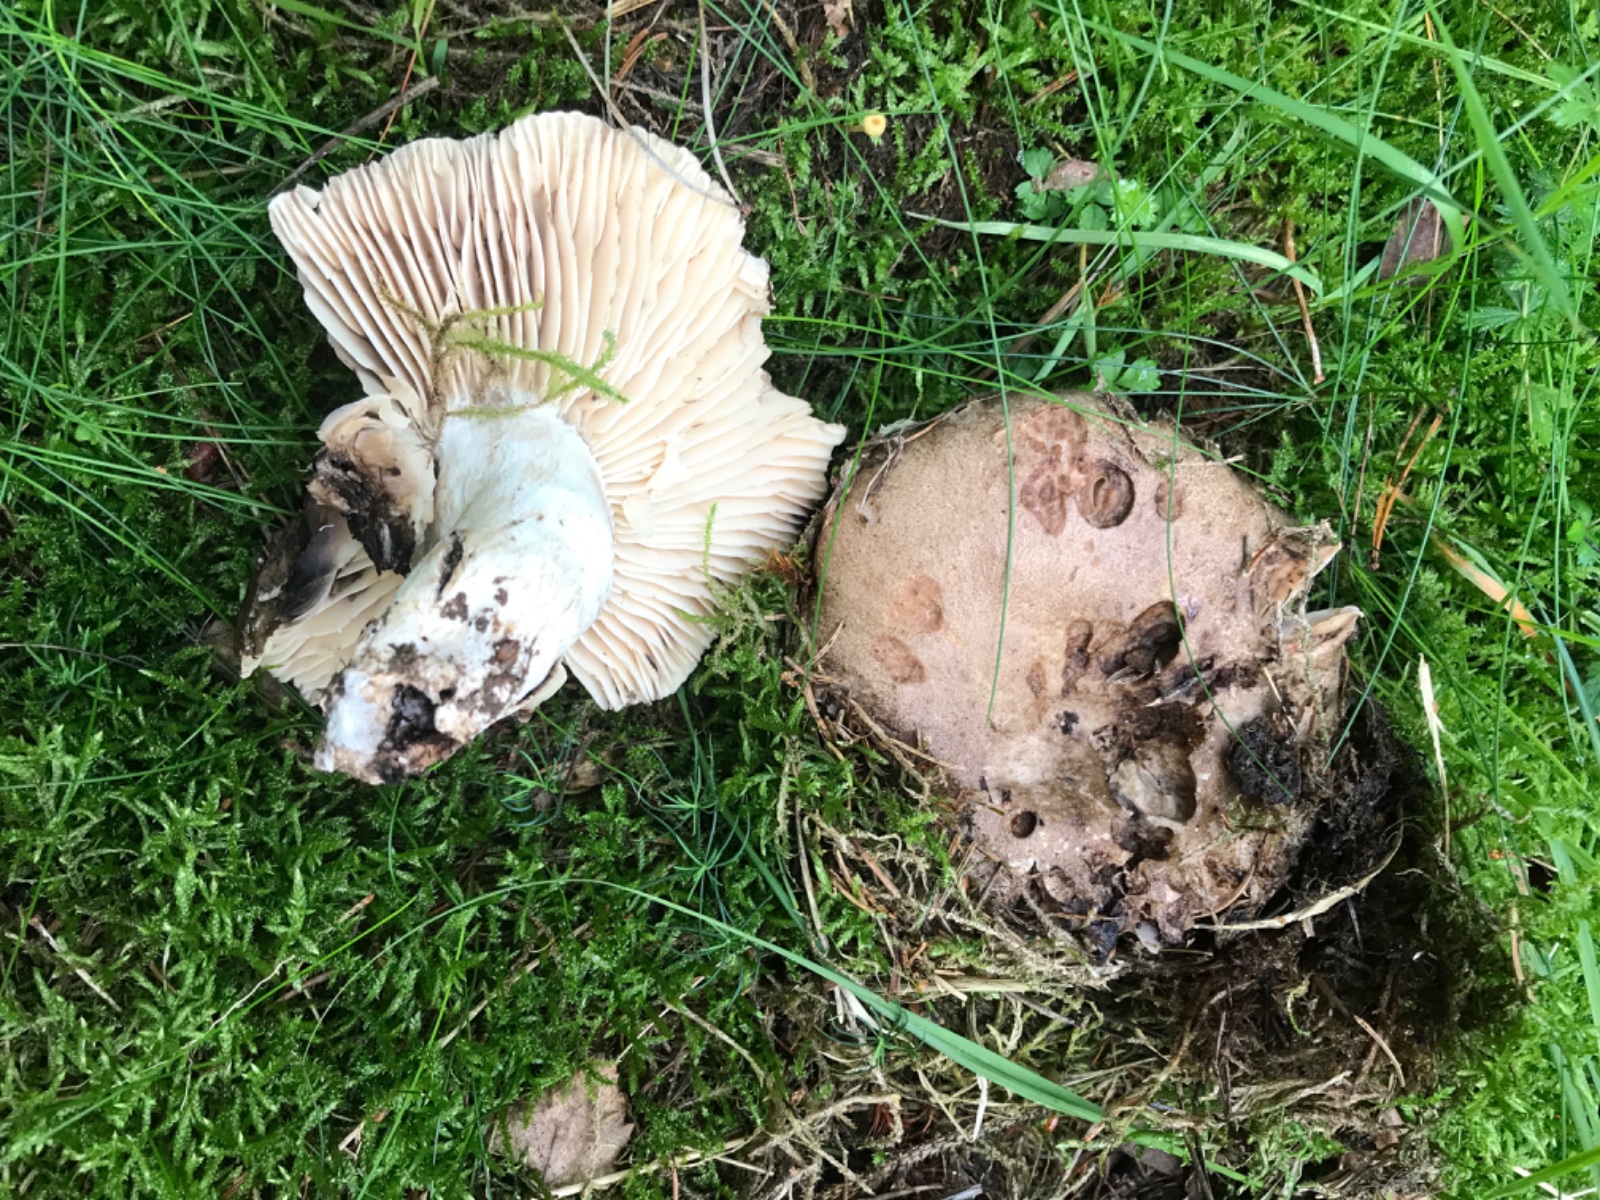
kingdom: Fungi
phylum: Basidiomycota
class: Agaricomycetes
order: Russulales
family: Russulaceae
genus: Russula
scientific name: Russula adusta
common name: sværtende skørhat
